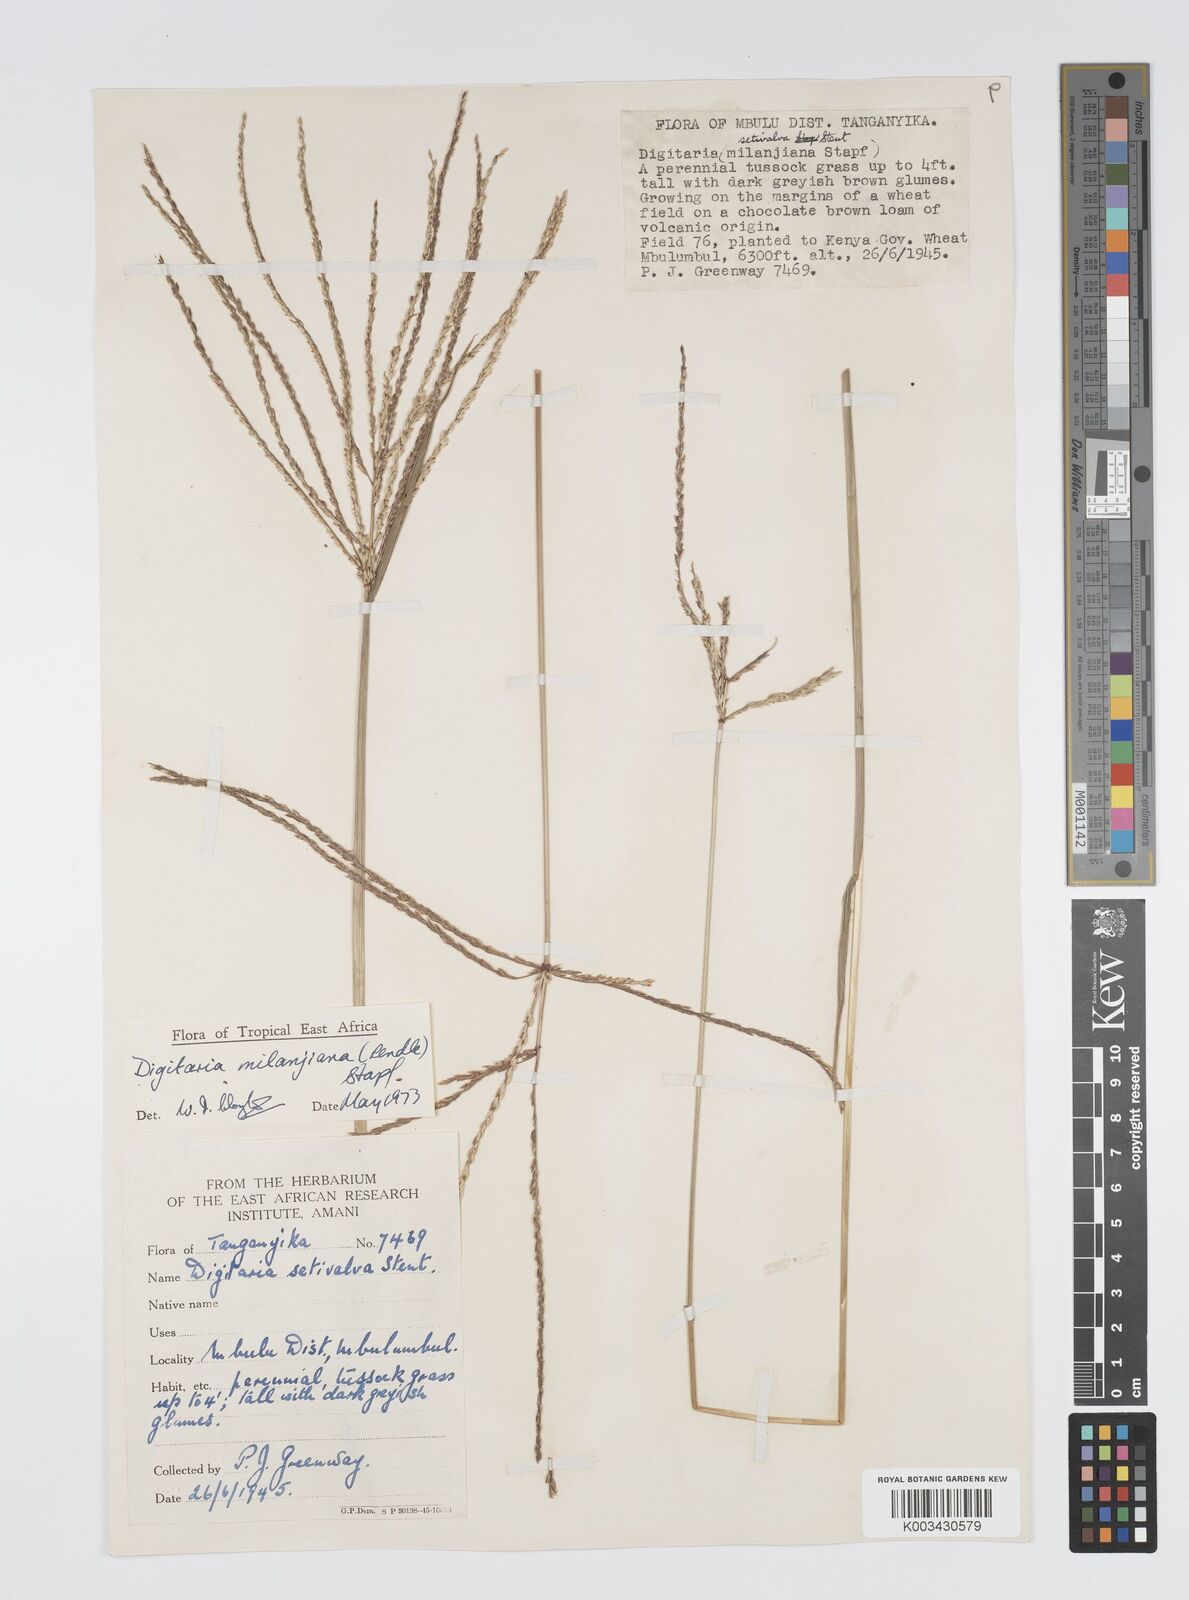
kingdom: Plantae
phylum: Tracheophyta
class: Liliopsida
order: Poales
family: Poaceae
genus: Digitaria
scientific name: Digitaria milanjiana
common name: Madagascar crabgrass
